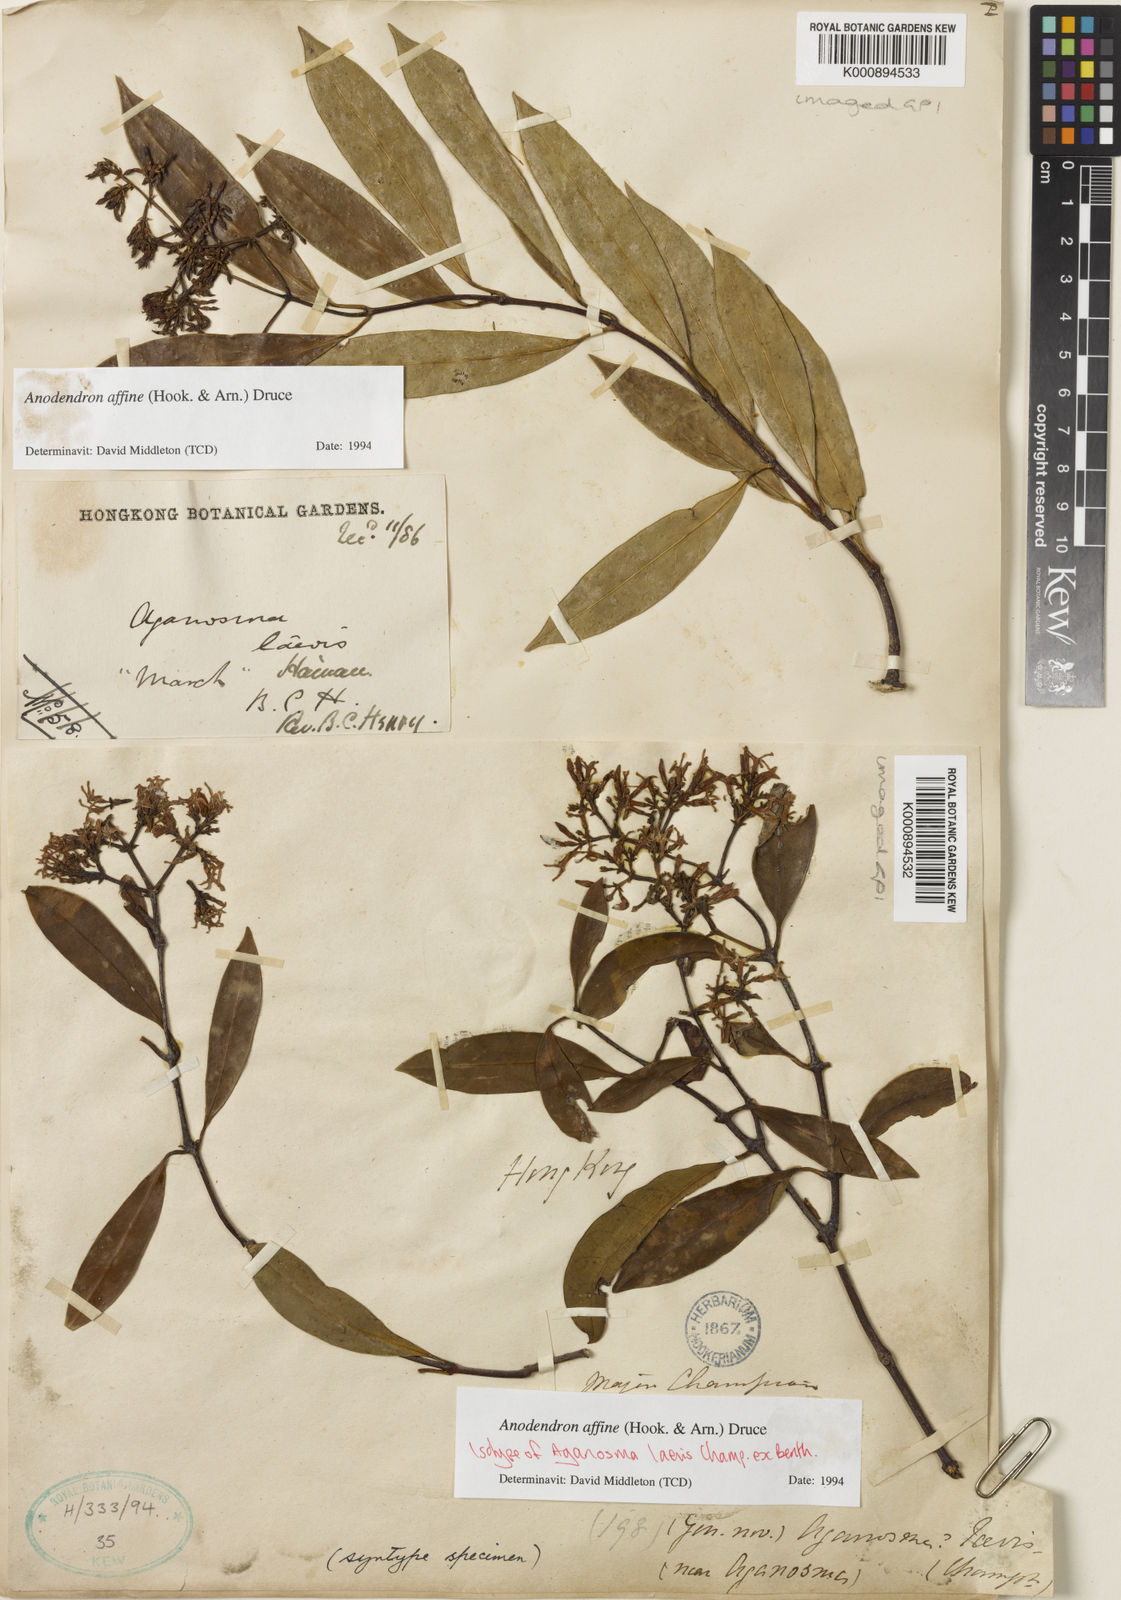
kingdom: Plantae
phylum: Tracheophyta
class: Magnoliopsida
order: Gentianales
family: Apocynaceae
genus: Anodendron
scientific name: Anodendron affine
